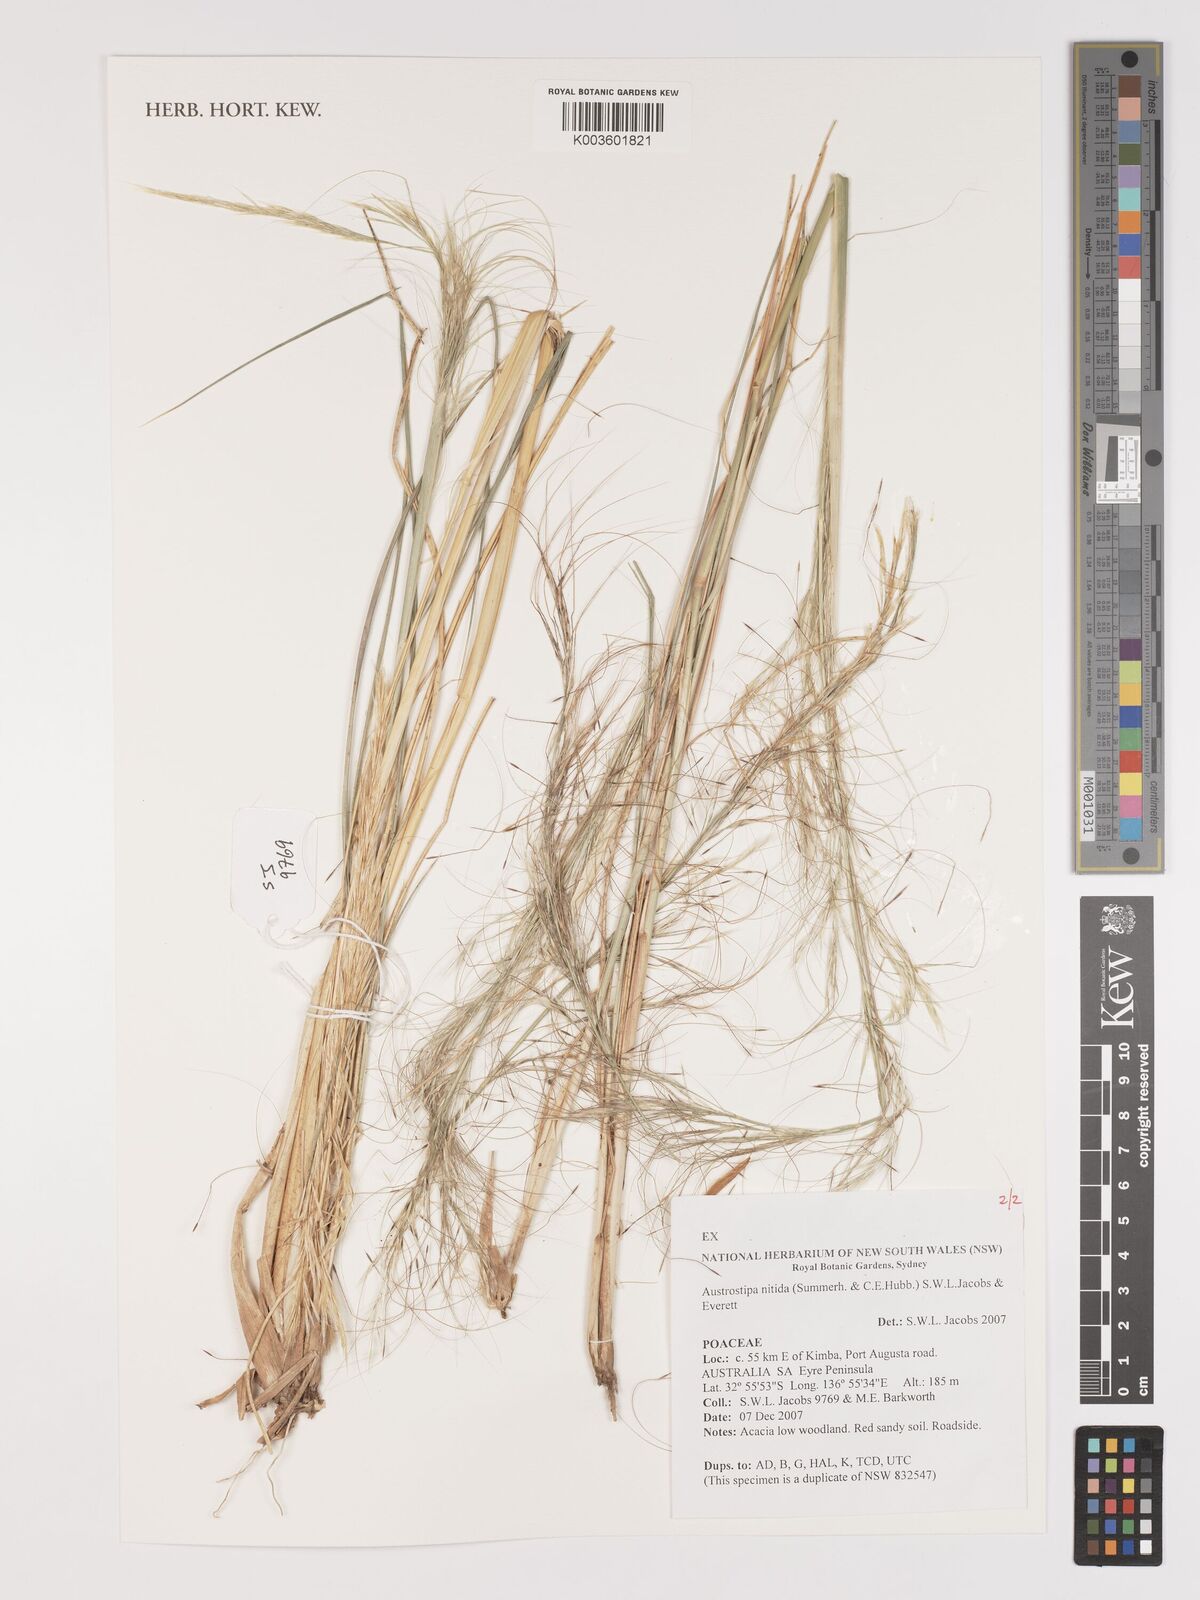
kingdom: Plantae
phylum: Tracheophyta
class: Liliopsida
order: Poales
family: Poaceae
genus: Austrostipa
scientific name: Austrostipa nitida
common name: Balcarra grass
